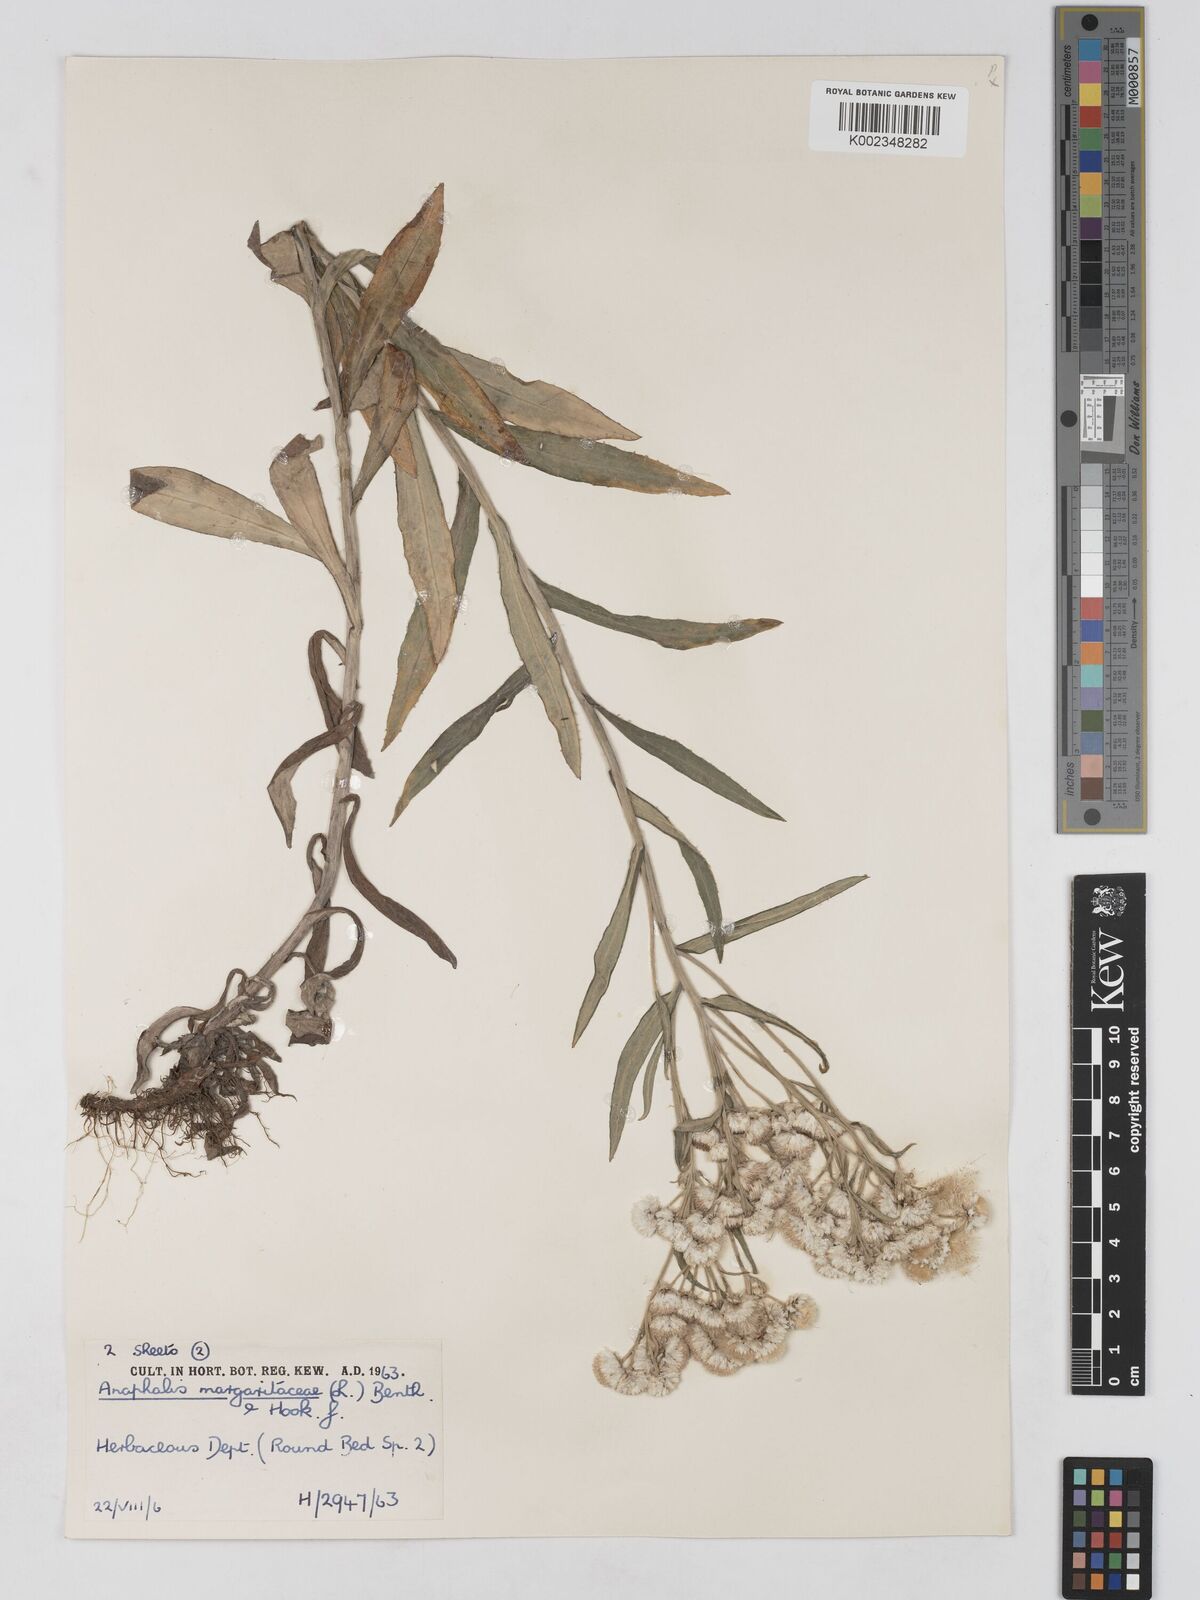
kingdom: Plantae
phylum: Tracheophyta
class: Magnoliopsida
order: Asterales
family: Asteraceae
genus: Anaphalis
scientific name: Anaphalis margaritacea
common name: Pearly everlasting
